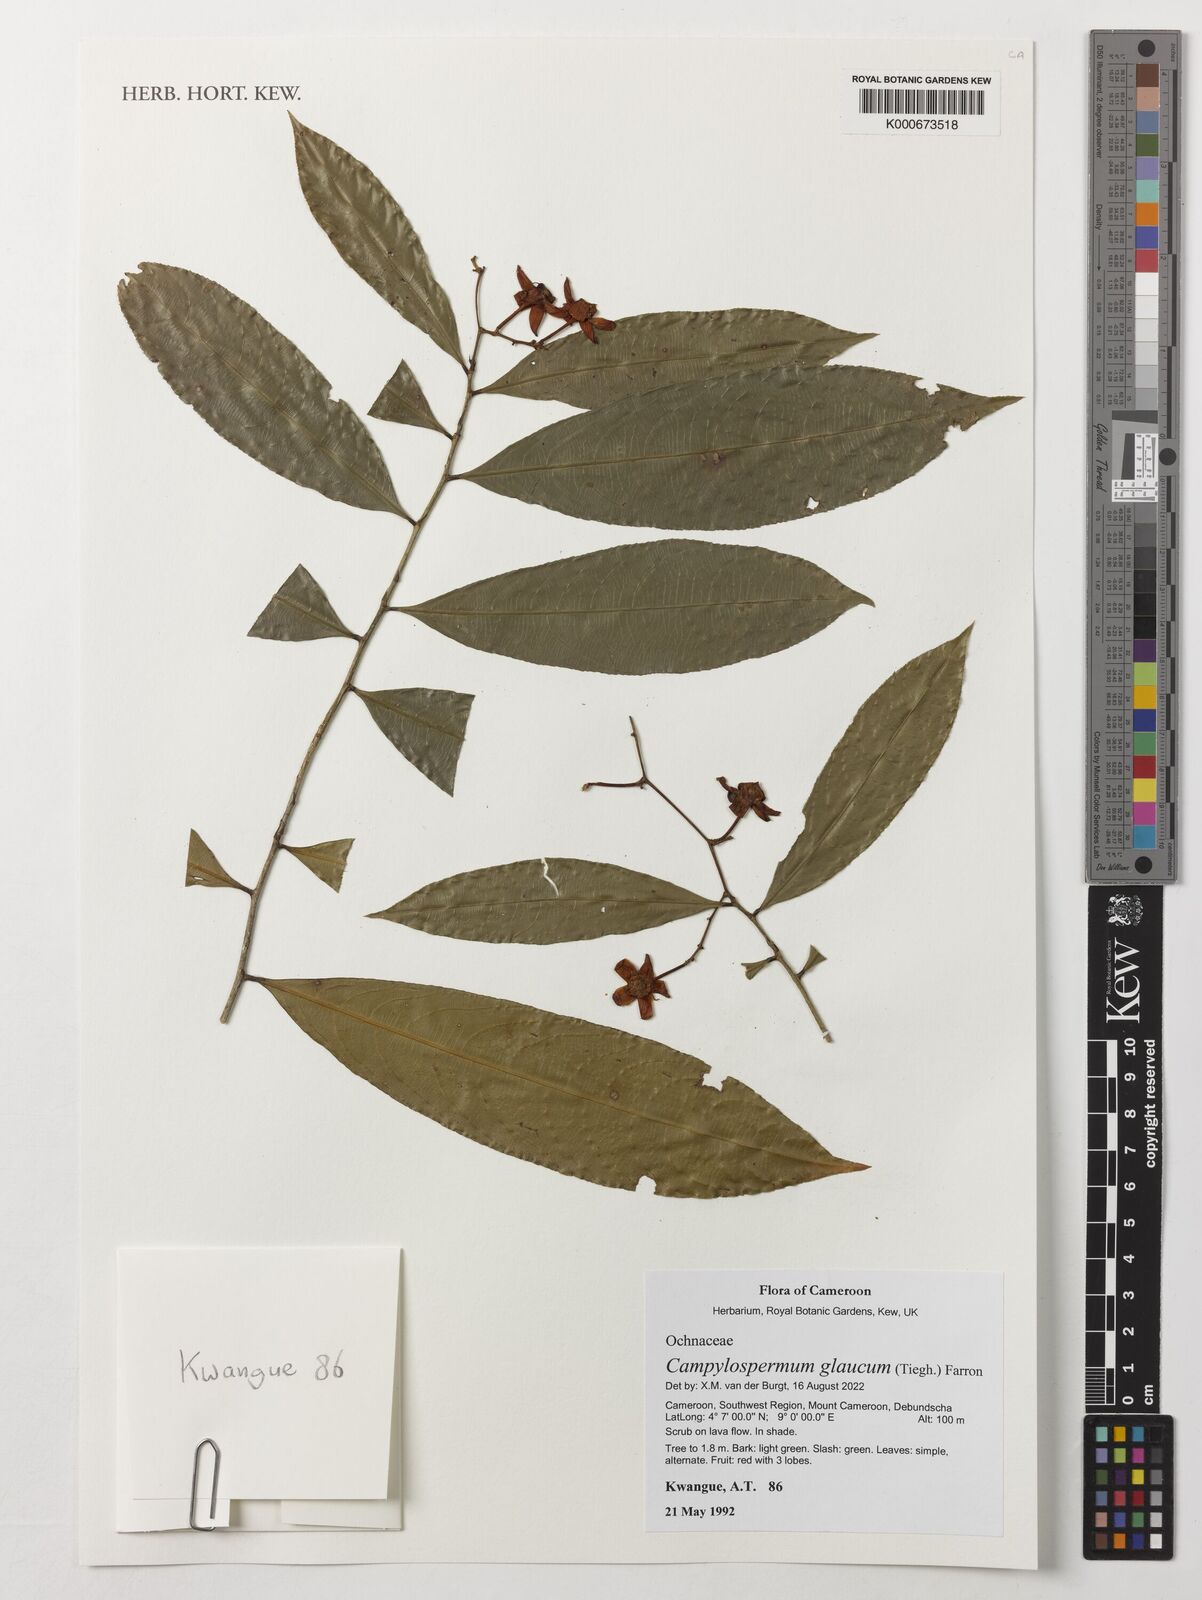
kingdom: Plantae
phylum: Tracheophyta
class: Magnoliopsida
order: Malpighiales
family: Ochnaceae
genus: Campylospermum
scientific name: Campylospermum laxiflorum
